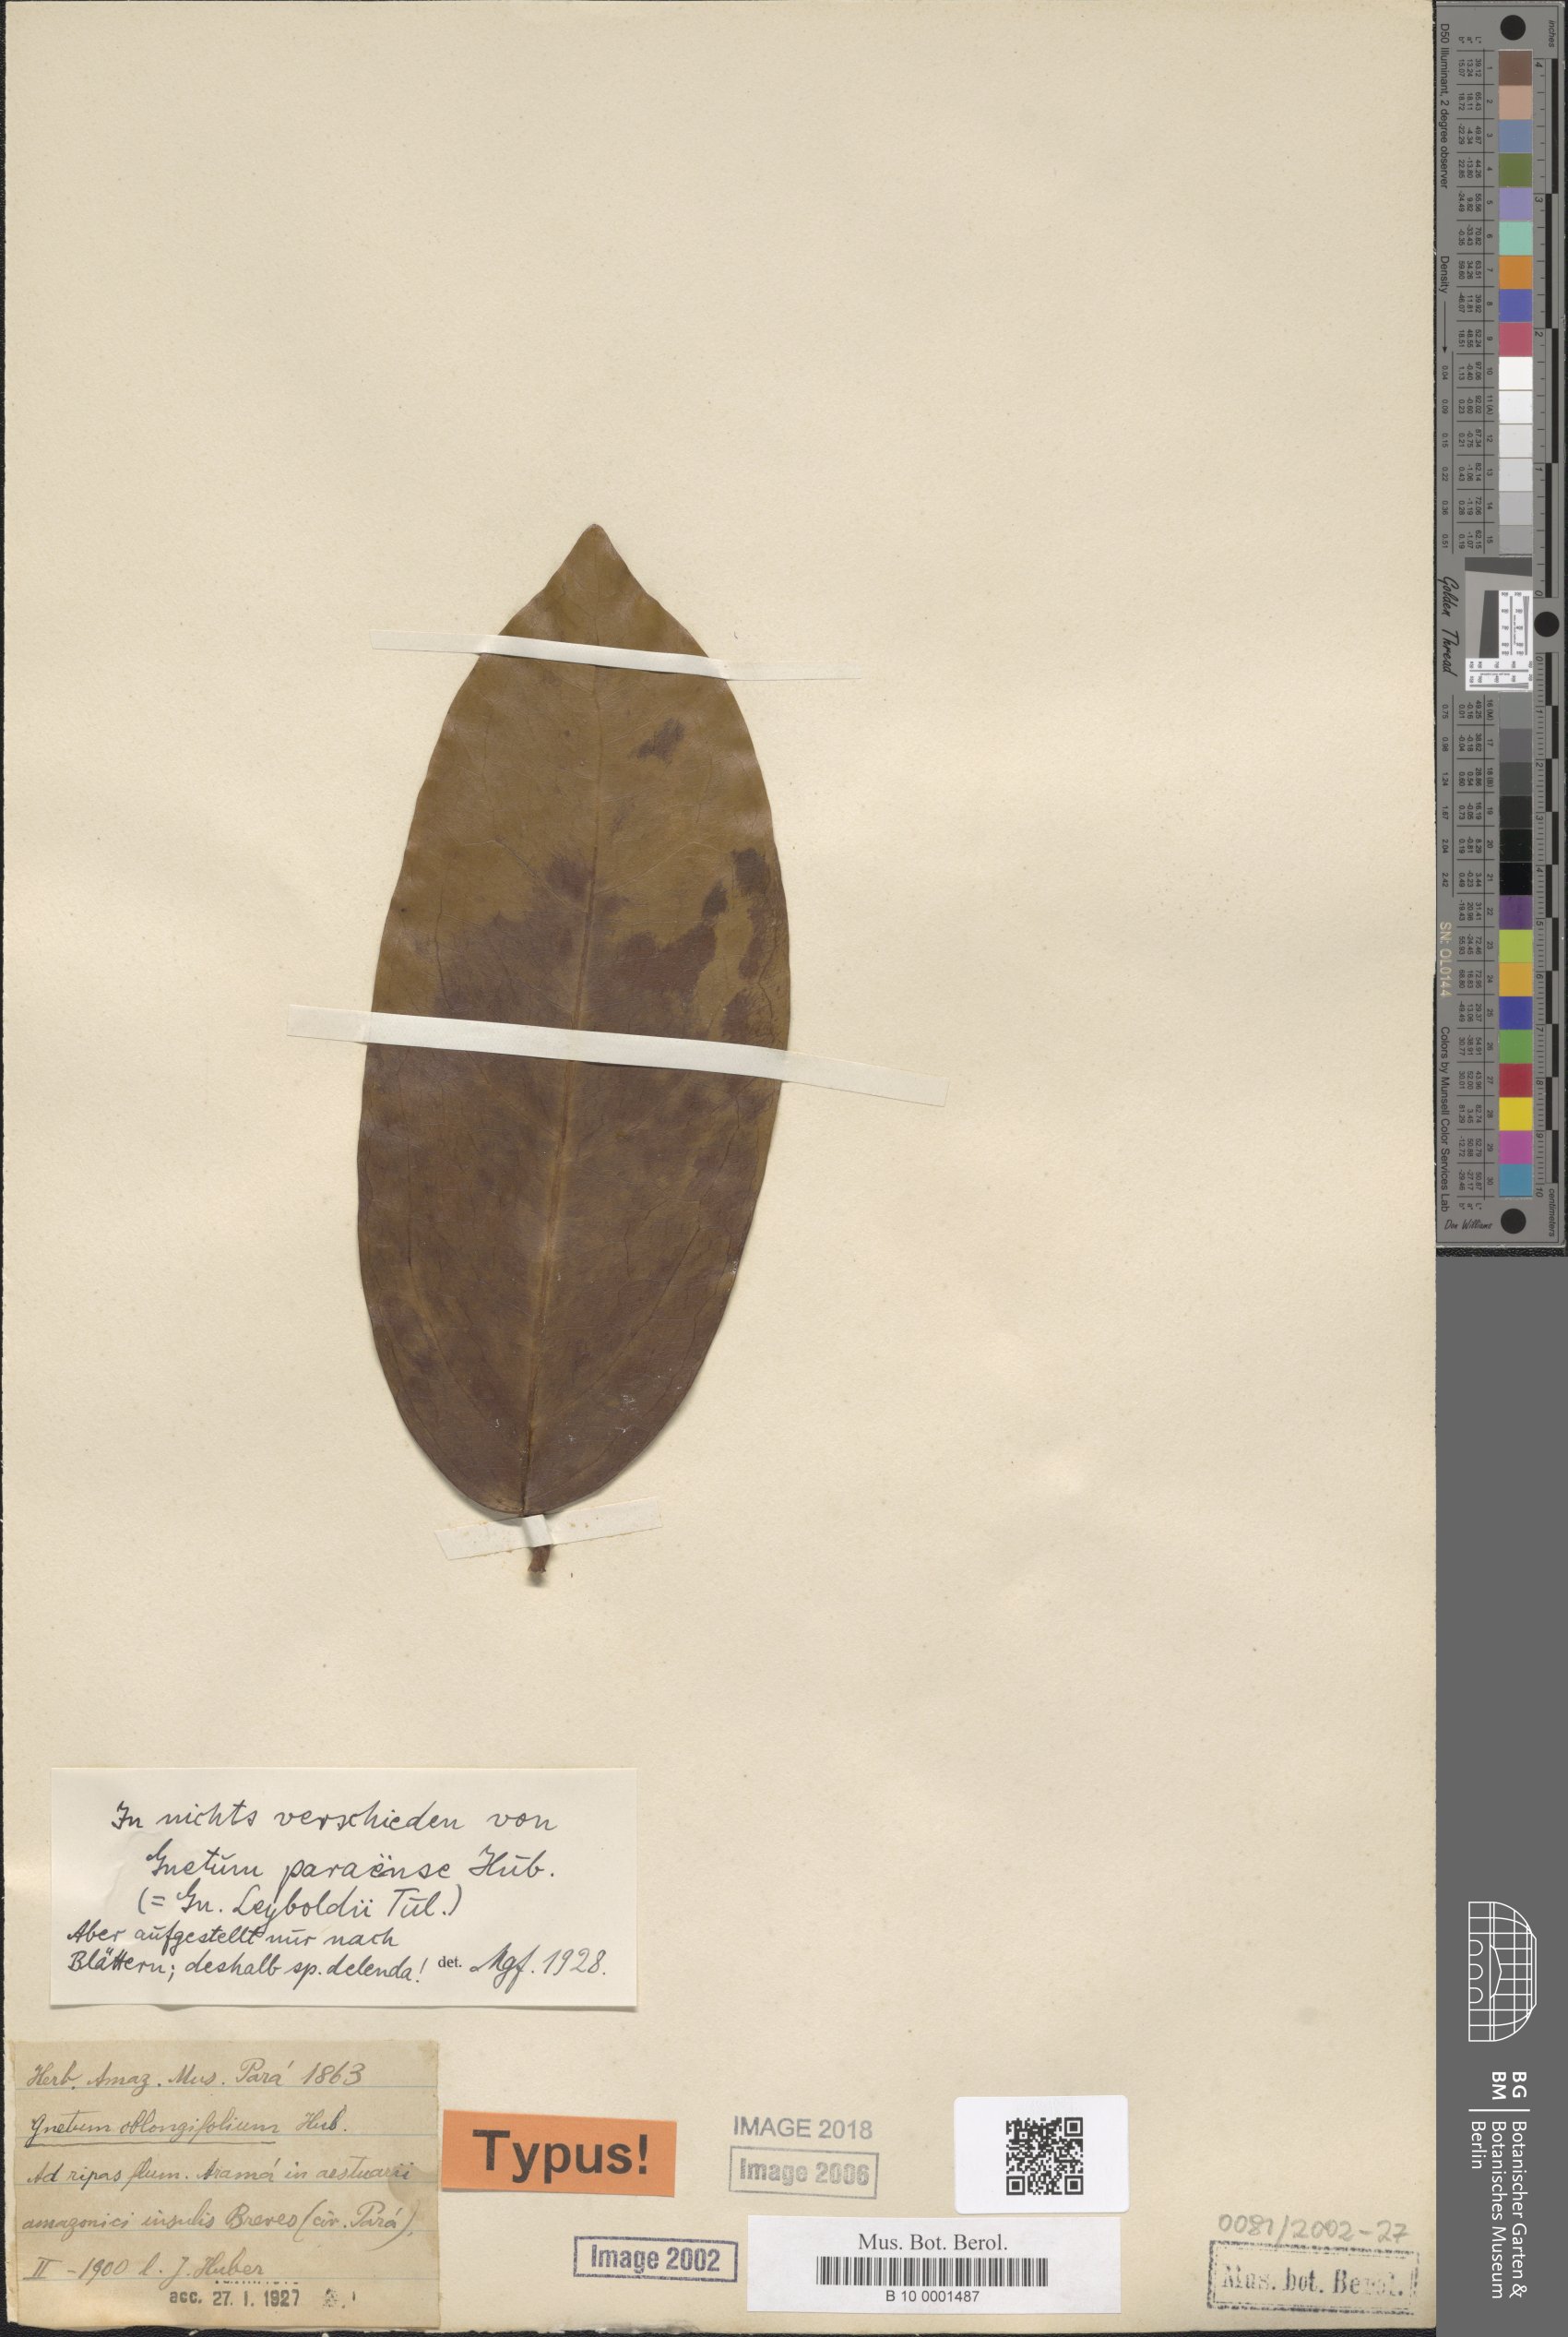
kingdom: Plantae
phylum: Tracheophyta
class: Gnetopsida
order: Gnetales
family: Gnetaceae
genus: Gnetum
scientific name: Gnetum leyboldii
